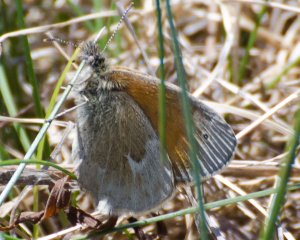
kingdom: Animalia
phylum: Arthropoda
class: Insecta
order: Lepidoptera
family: Nymphalidae
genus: Coenonympha
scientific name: Coenonympha tullia
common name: Large Heath
